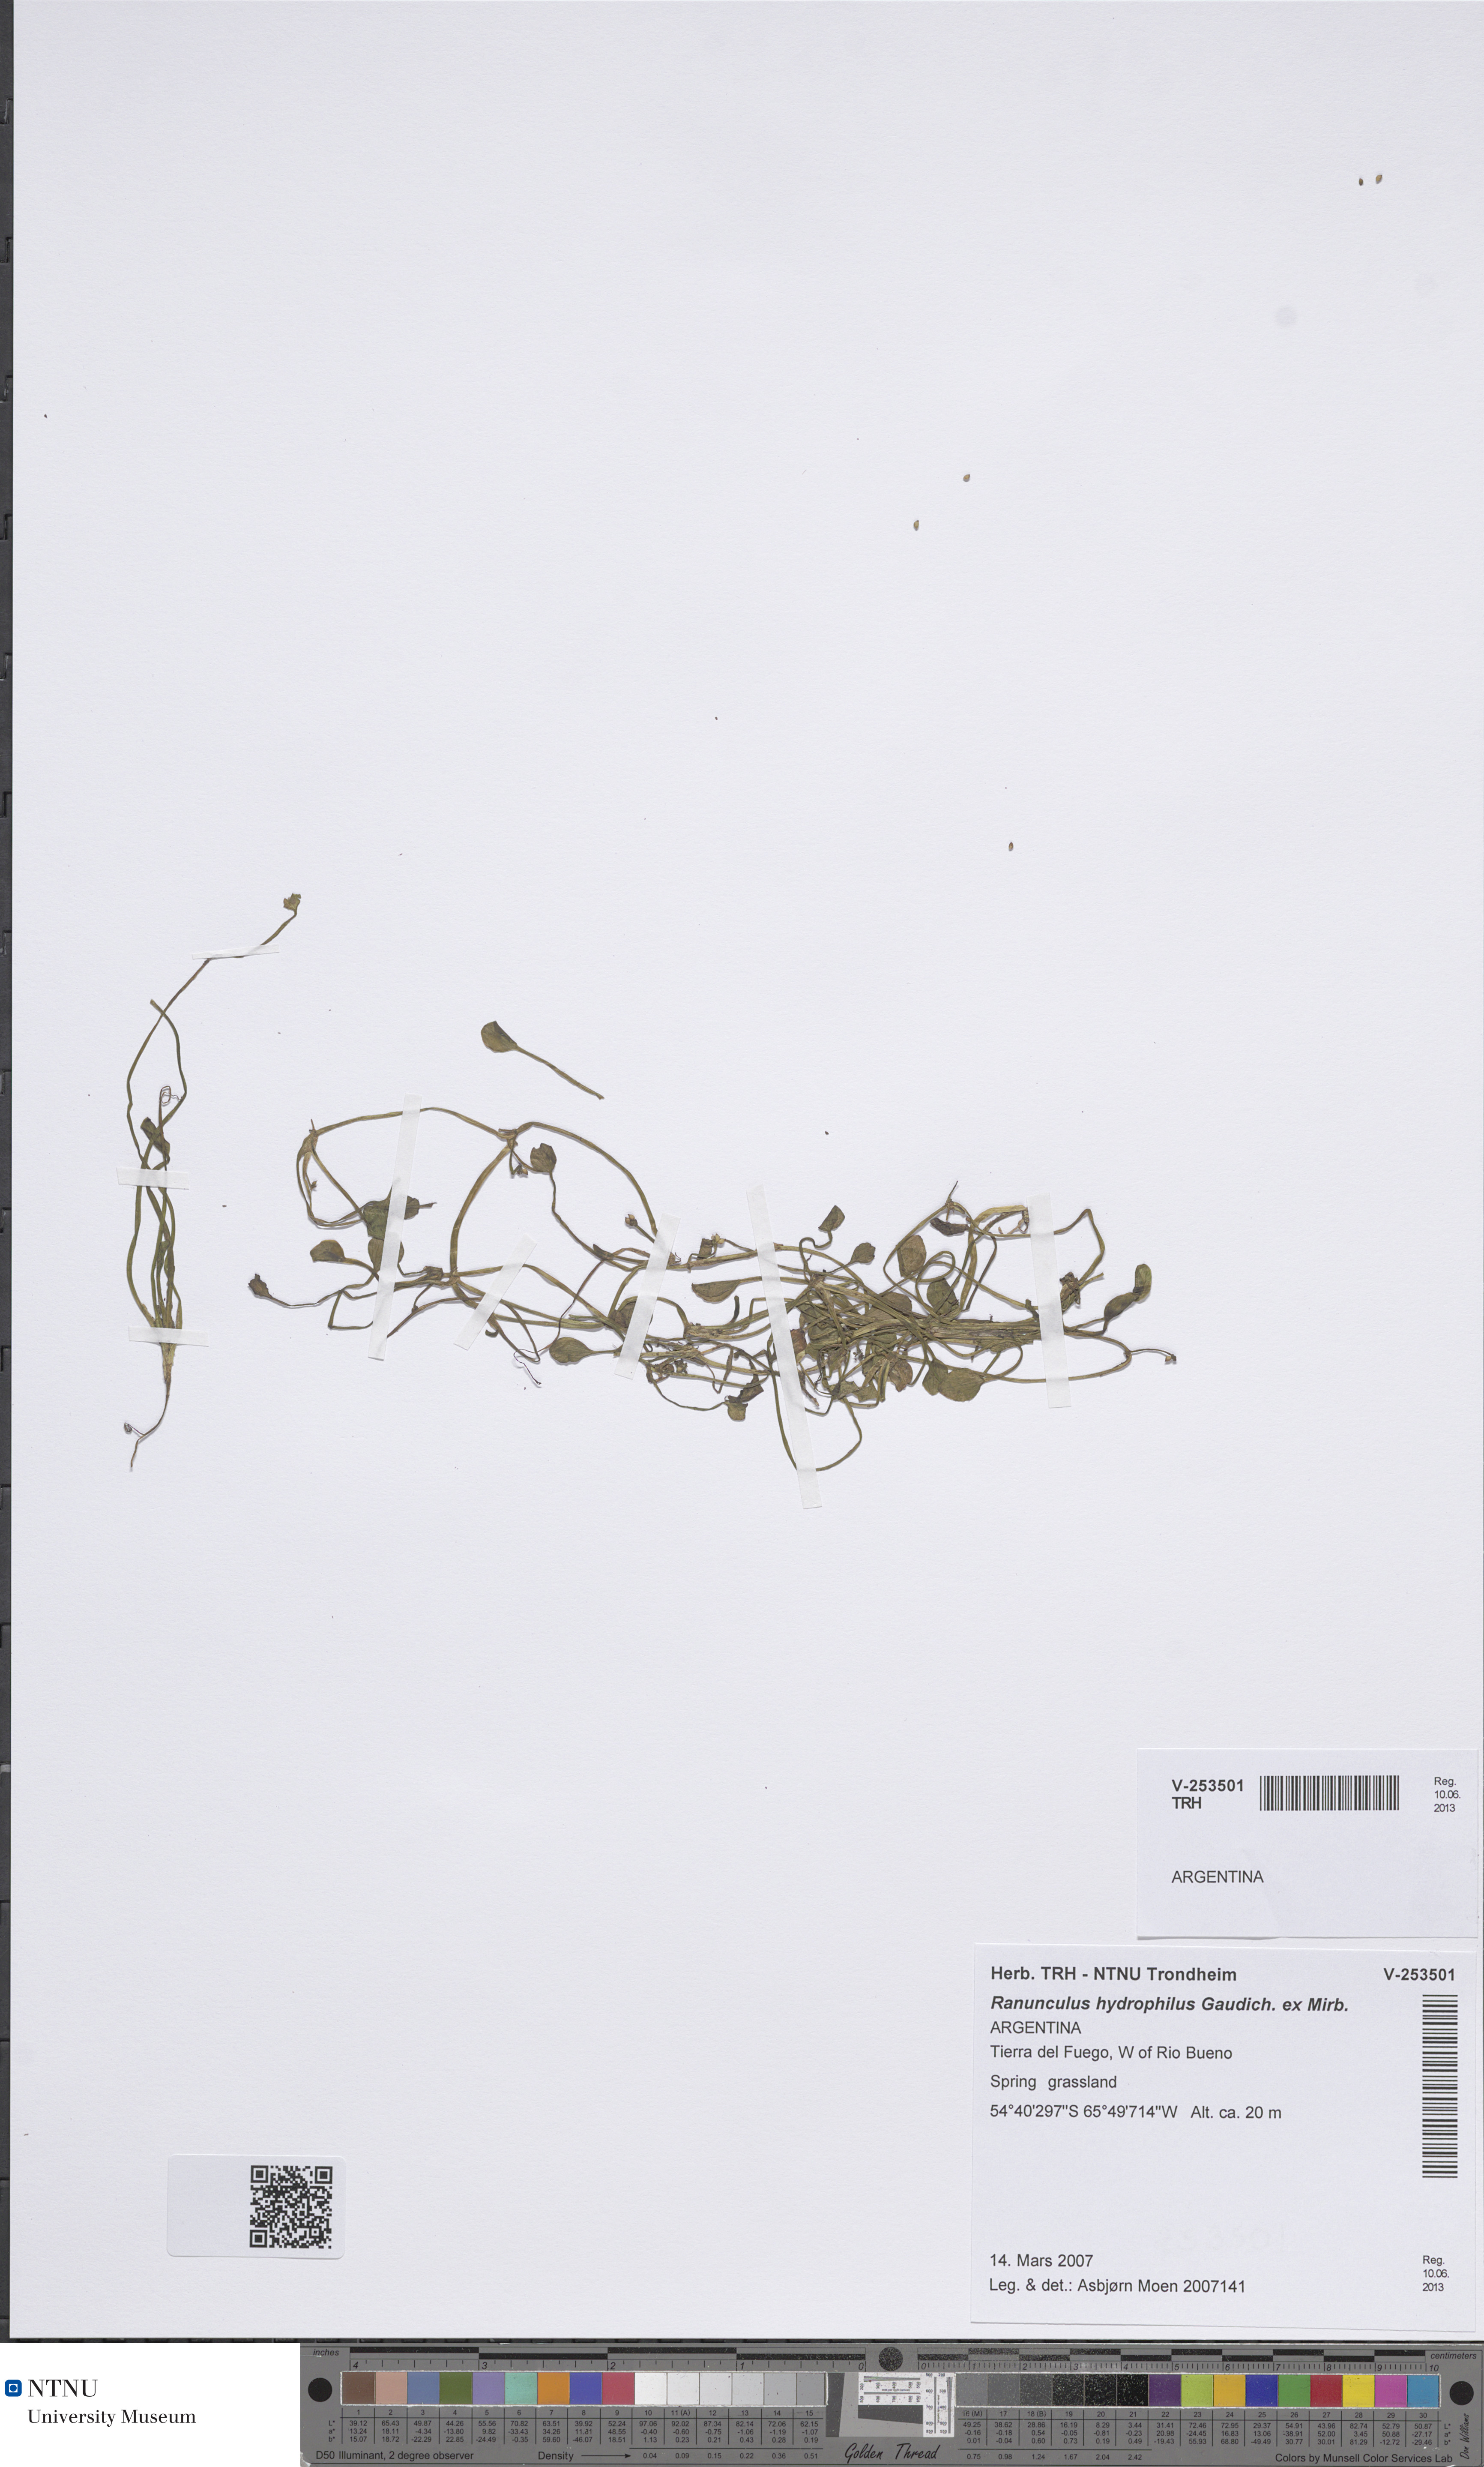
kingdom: Plantae
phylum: Tracheophyta
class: Magnoliopsida
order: Ranunculales
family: Ranunculaceae
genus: Ranunculus
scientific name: Ranunculus hydrophilus
